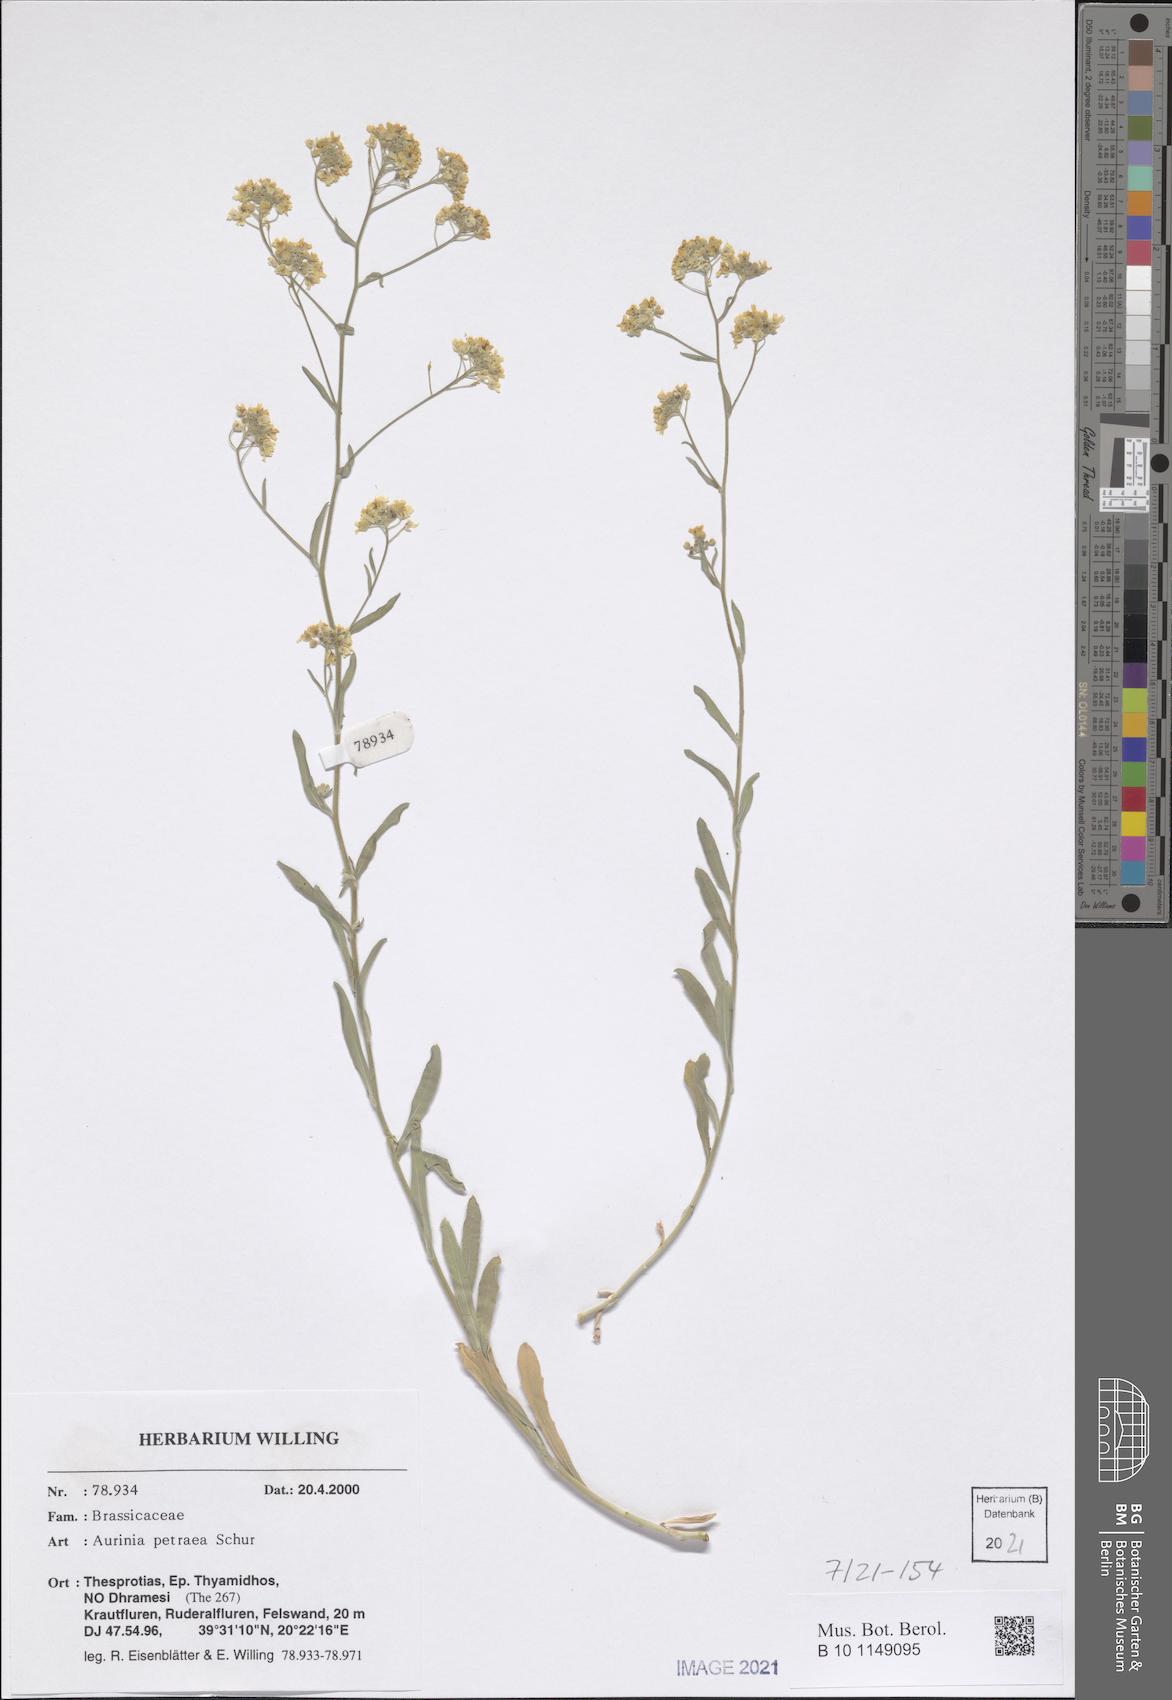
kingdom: Plantae
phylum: Tracheophyta
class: Magnoliopsida
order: Brassicales
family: Brassicaceae
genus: Aurinia
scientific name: Aurinia petraea
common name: Goldentuft
